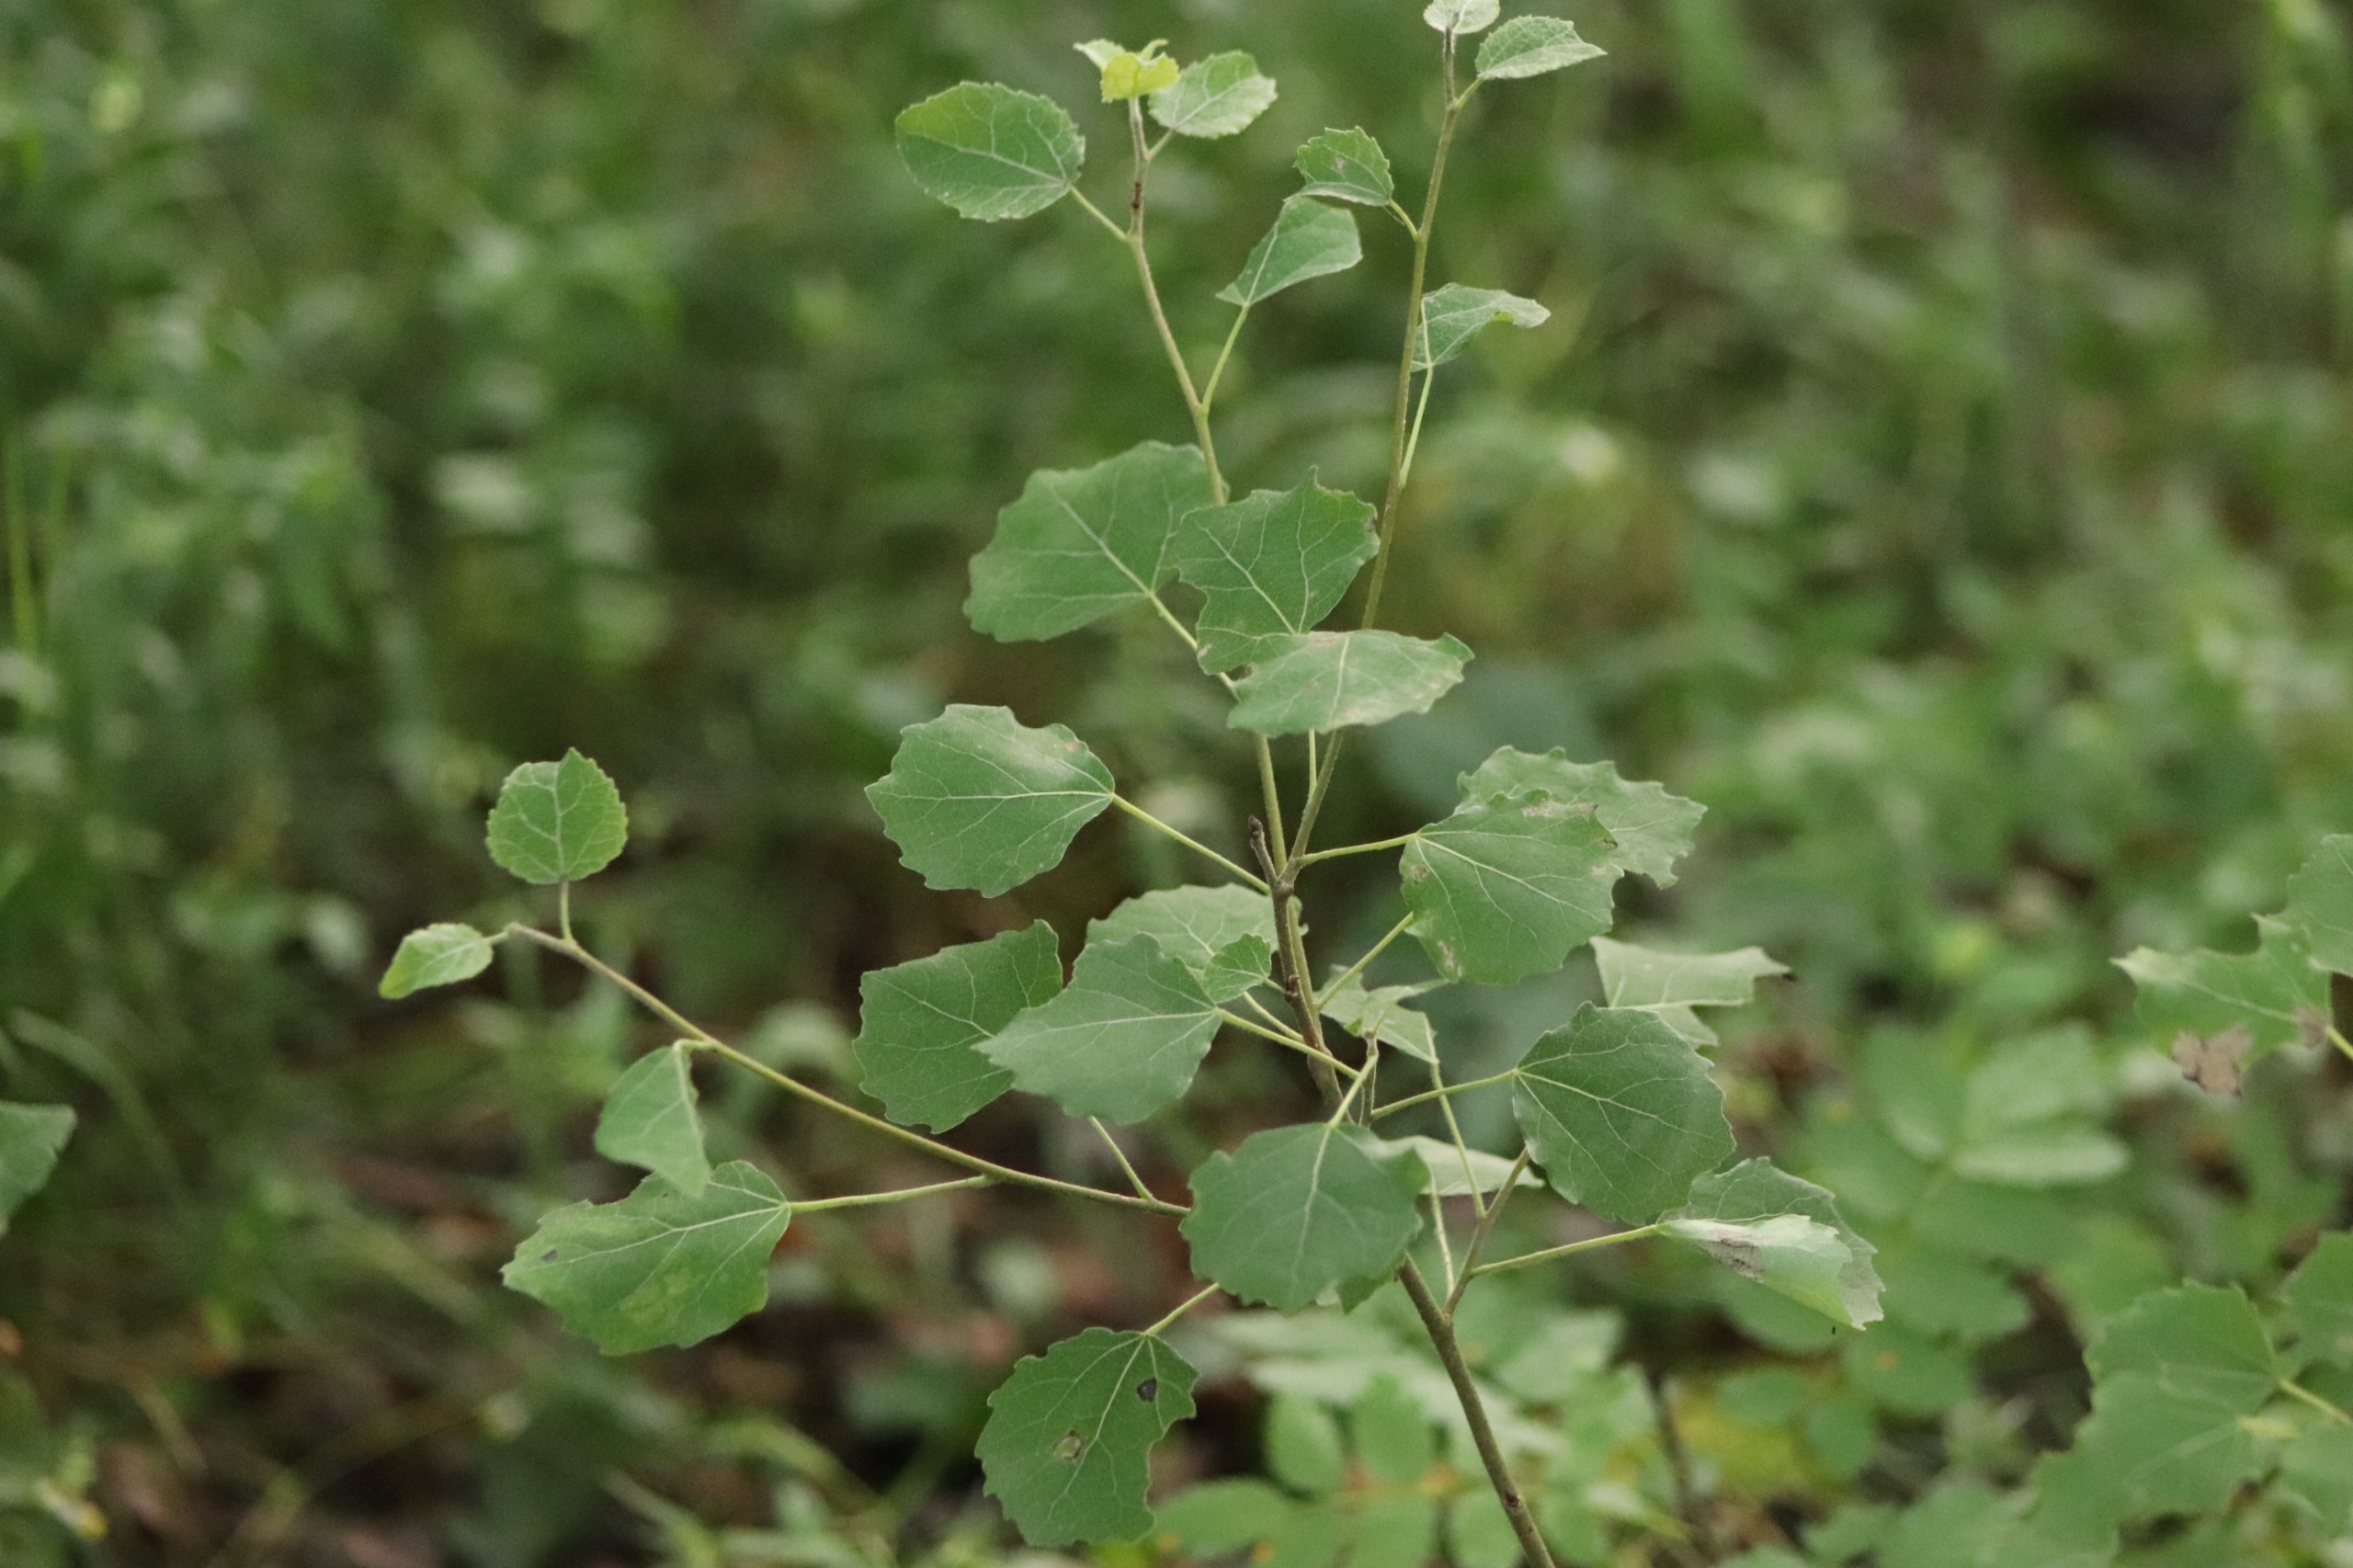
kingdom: Plantae
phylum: Tracheophyta
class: Magnoliopsida
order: Malpighiales
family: Salicaceae
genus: Populus
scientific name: Populus tremula
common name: Bævreasp
